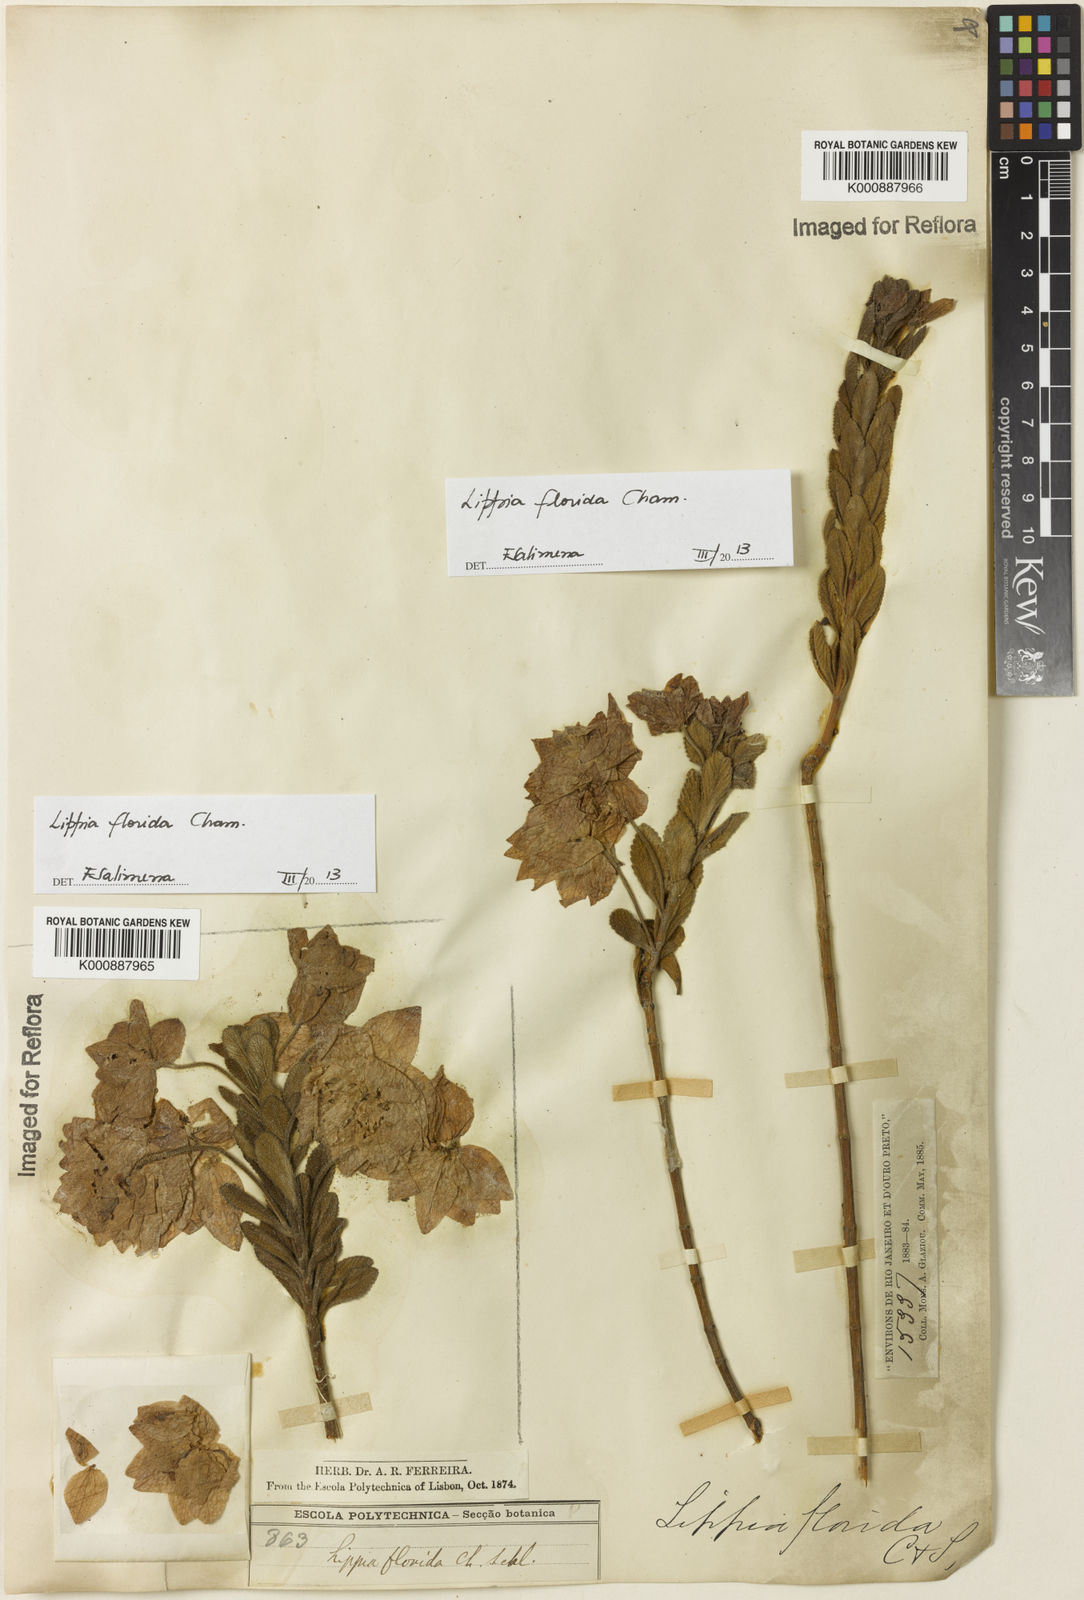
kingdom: Plantae
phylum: Tracheophyta
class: Magnoliopsida
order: Lamiales
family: Verbenaceae
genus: Lippia
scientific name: Lippia florida
